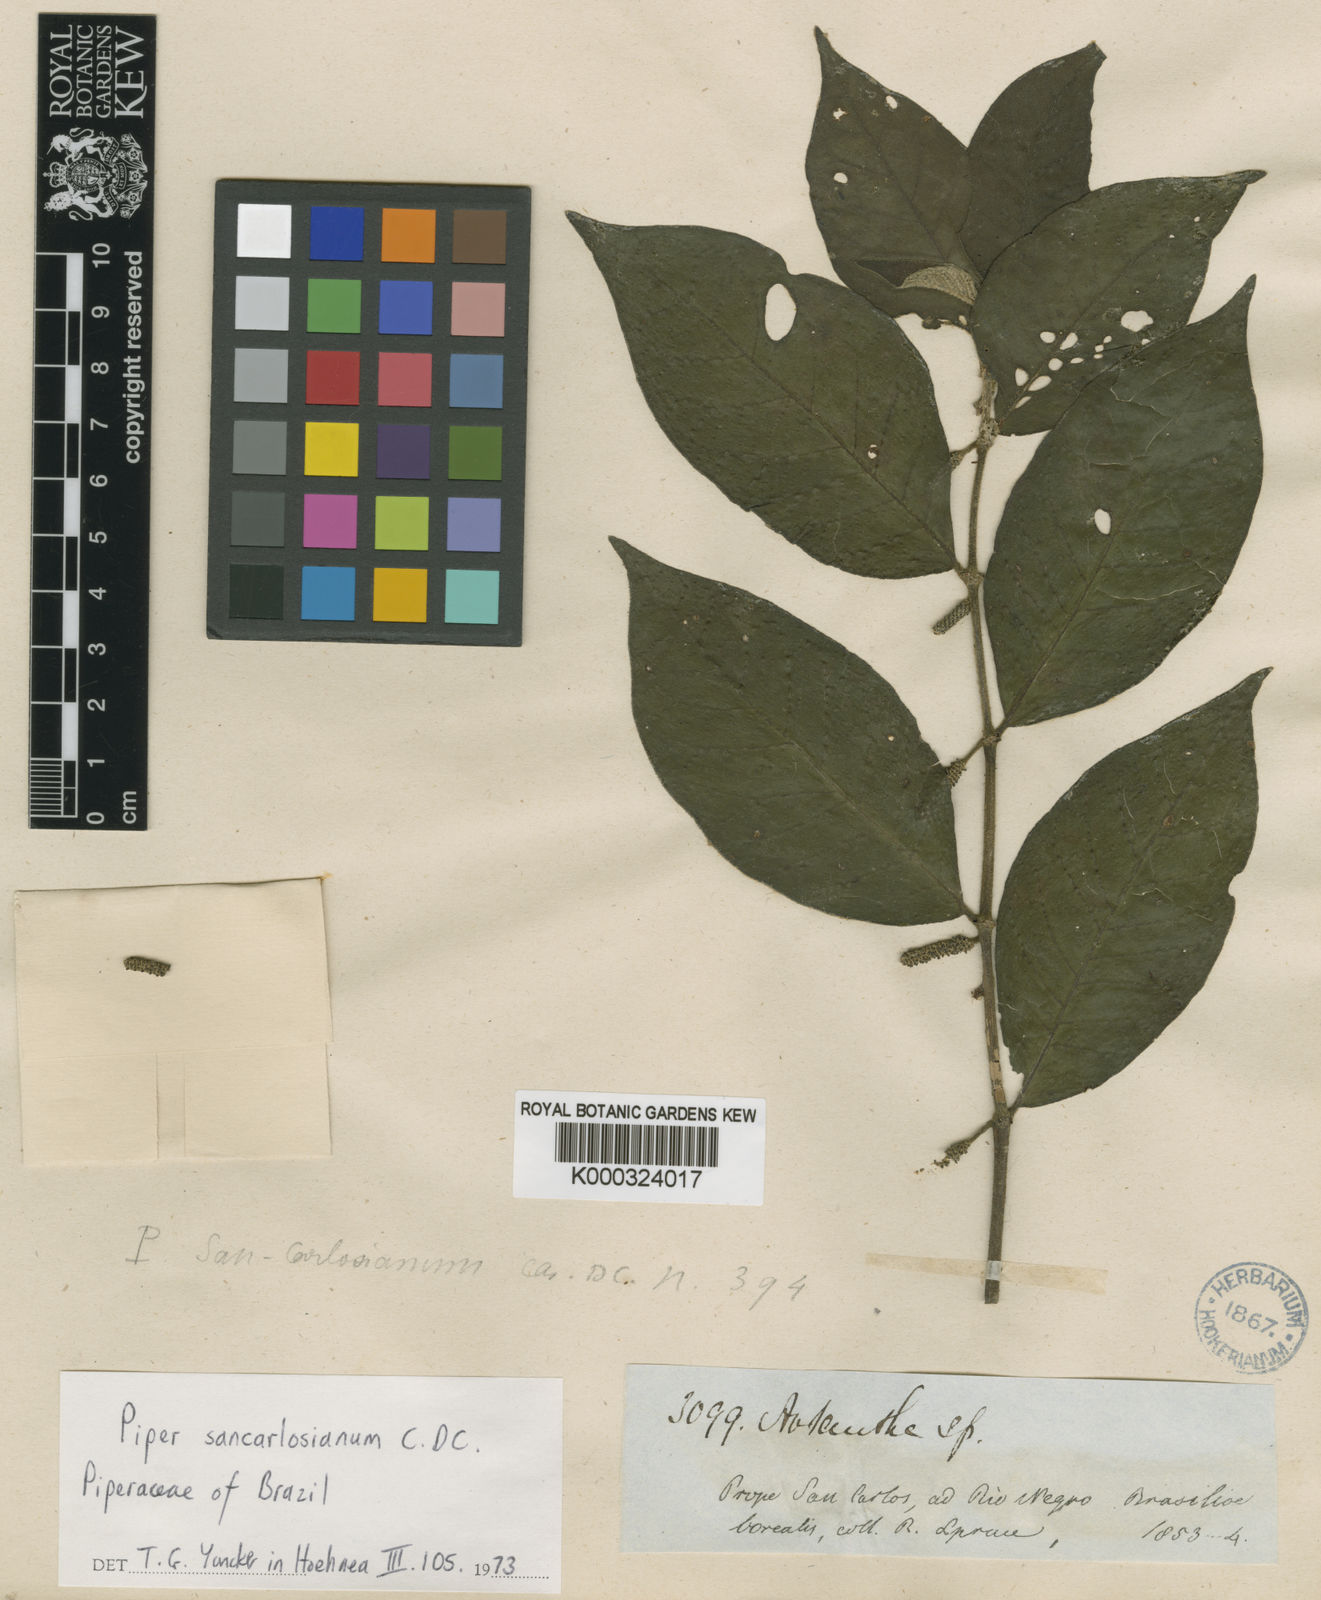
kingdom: Plantae
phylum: Tracheophyta
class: Magnoliopsida
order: Piperales
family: Piperaceae
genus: Piper
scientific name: Piper baccans
